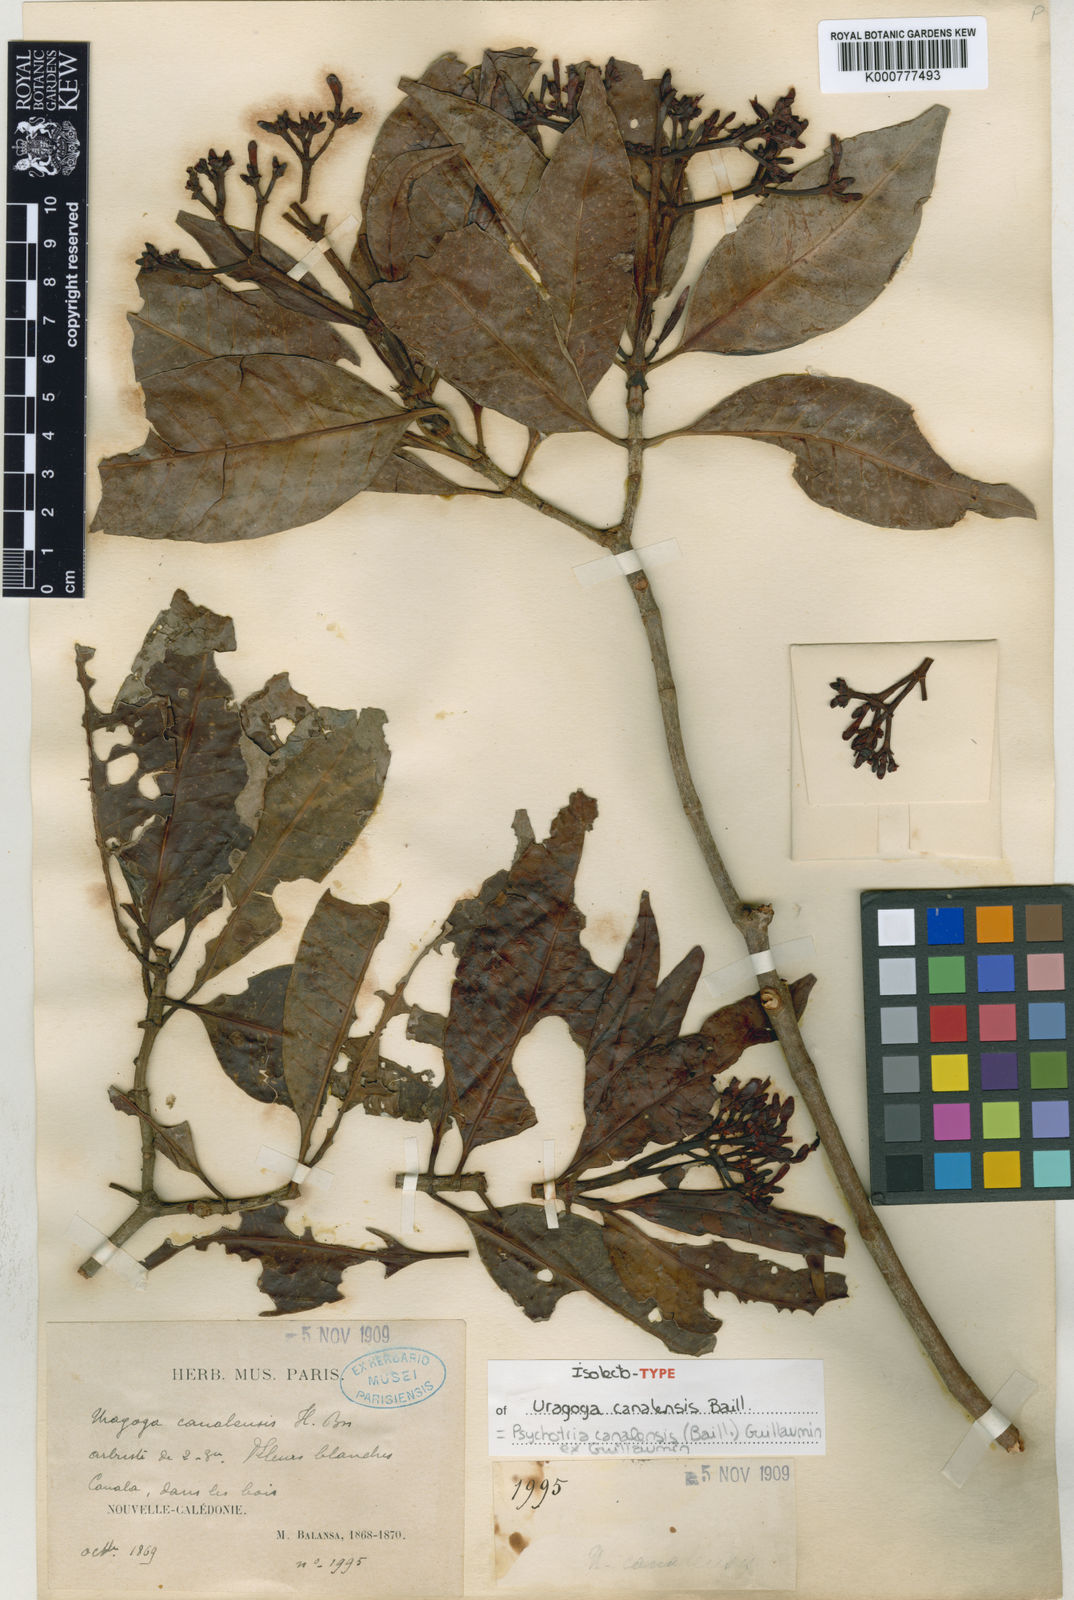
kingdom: Plantae
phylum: Tracheophyta
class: Magnoliopsida
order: Gentianales
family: Rubiaceae
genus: Psychotria
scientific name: Psychotria canalensis
